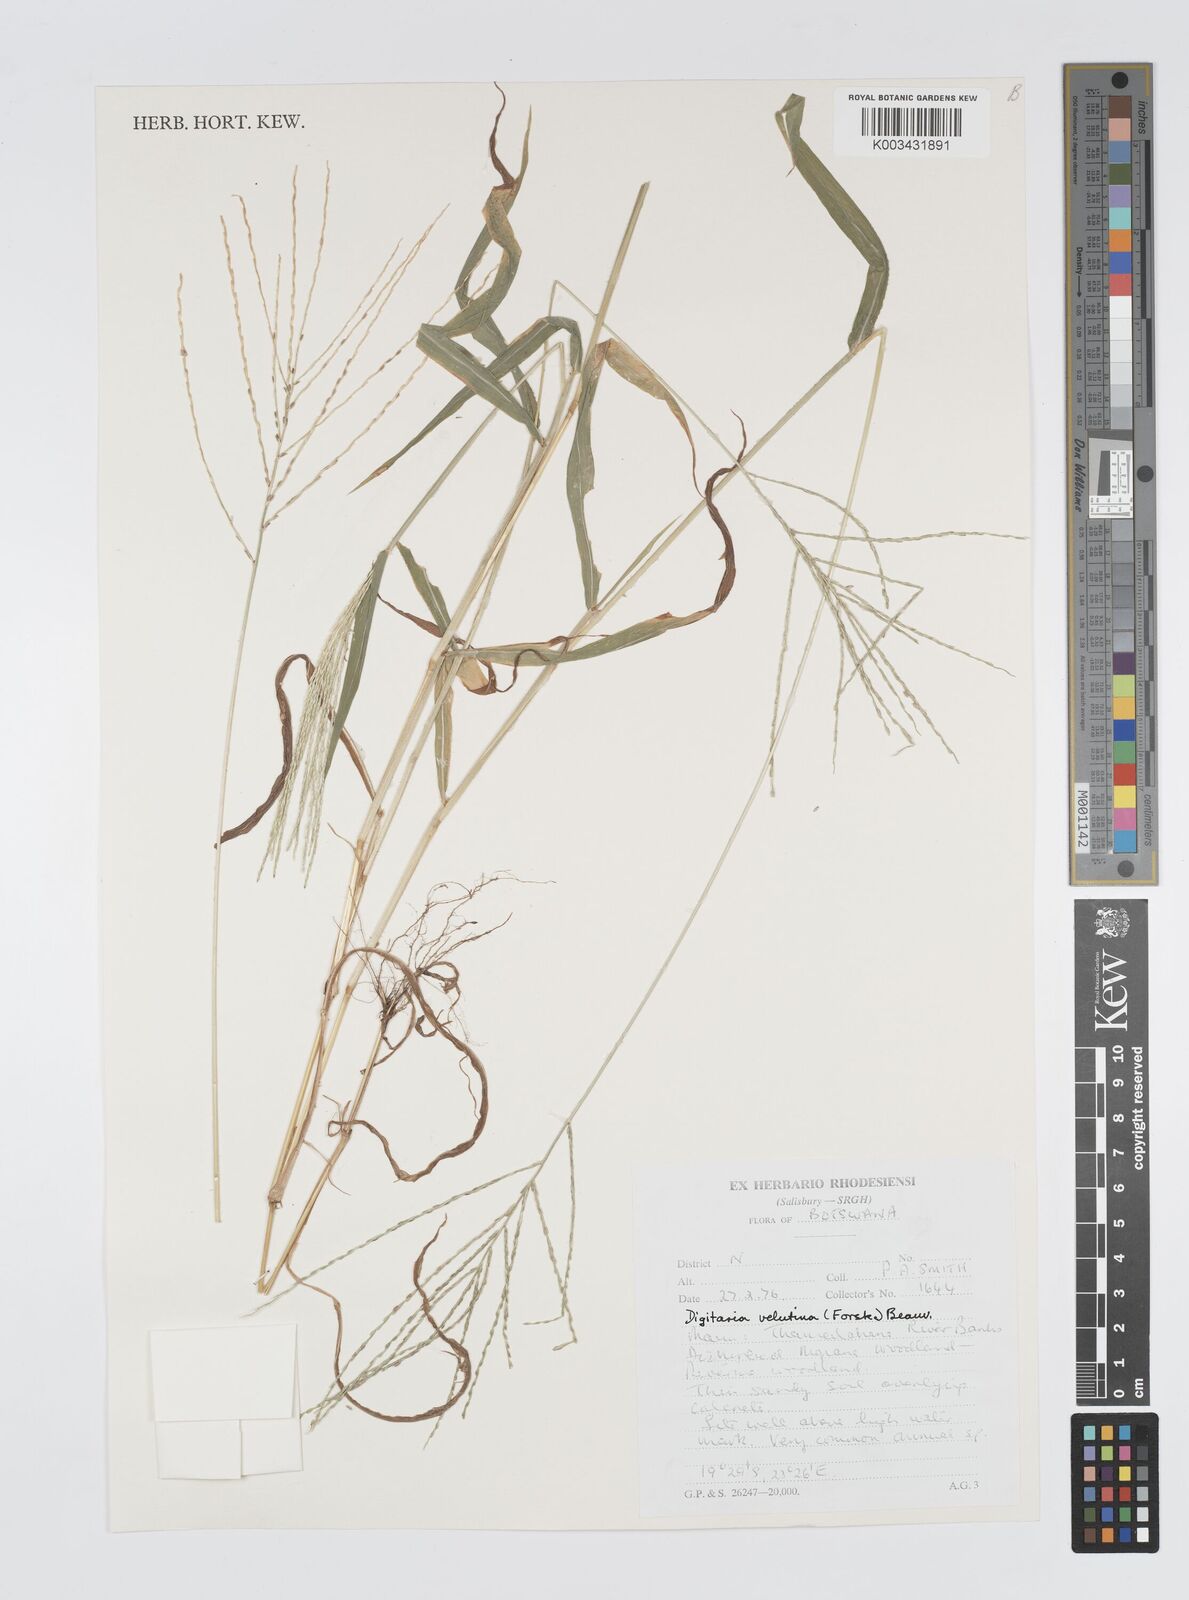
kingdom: Plantae
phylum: Tracheophyta
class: Liliopsida
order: Poales
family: Poaceae
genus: Digitaria
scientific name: Digitaria velutina
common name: Long-plume finger grass
